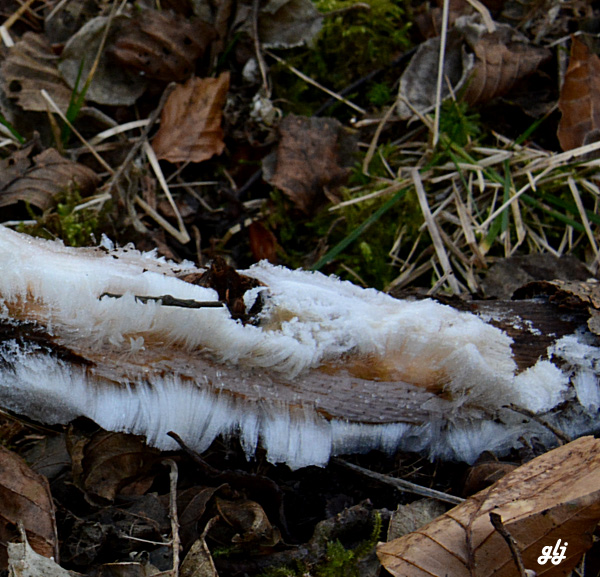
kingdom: Fungi
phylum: Basidiomycota
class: Tremellomycetes
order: Tremellales
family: Exidiaceae
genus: Exidiopsis
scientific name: Exidiopsis effusa
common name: smuk bævrehinde
